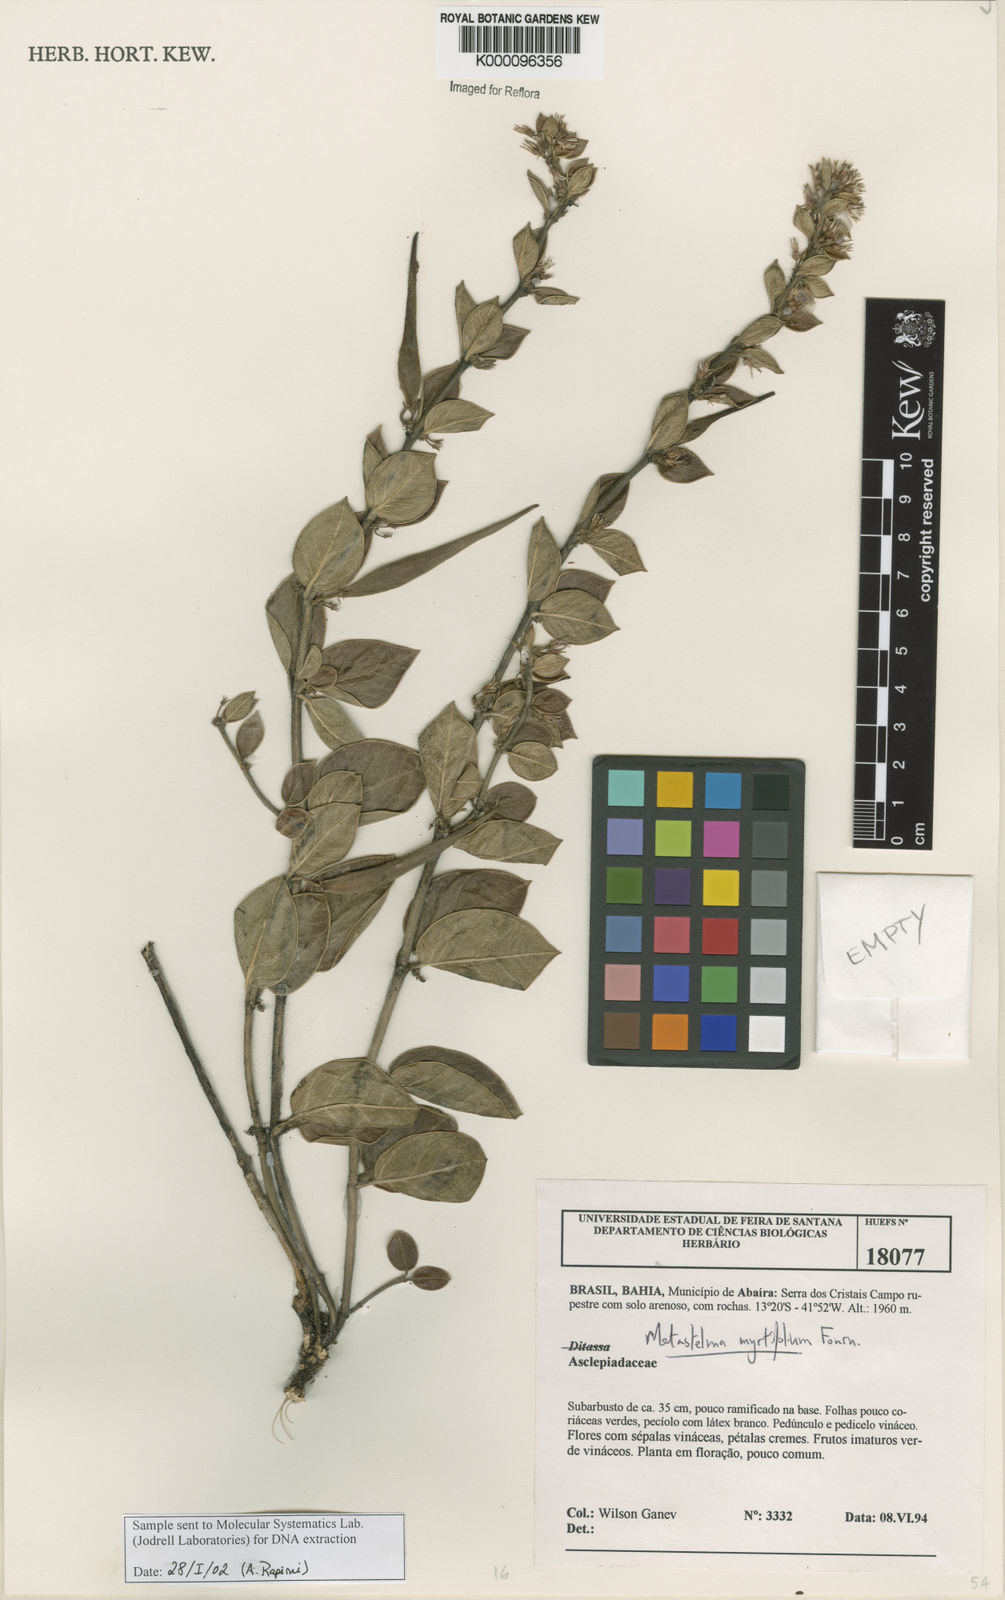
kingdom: Plantae
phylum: Tracheophyta
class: Magnoliopsida
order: Gentianales
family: Apocynaceae
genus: Metastelma
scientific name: Metastelma myrtifolium
